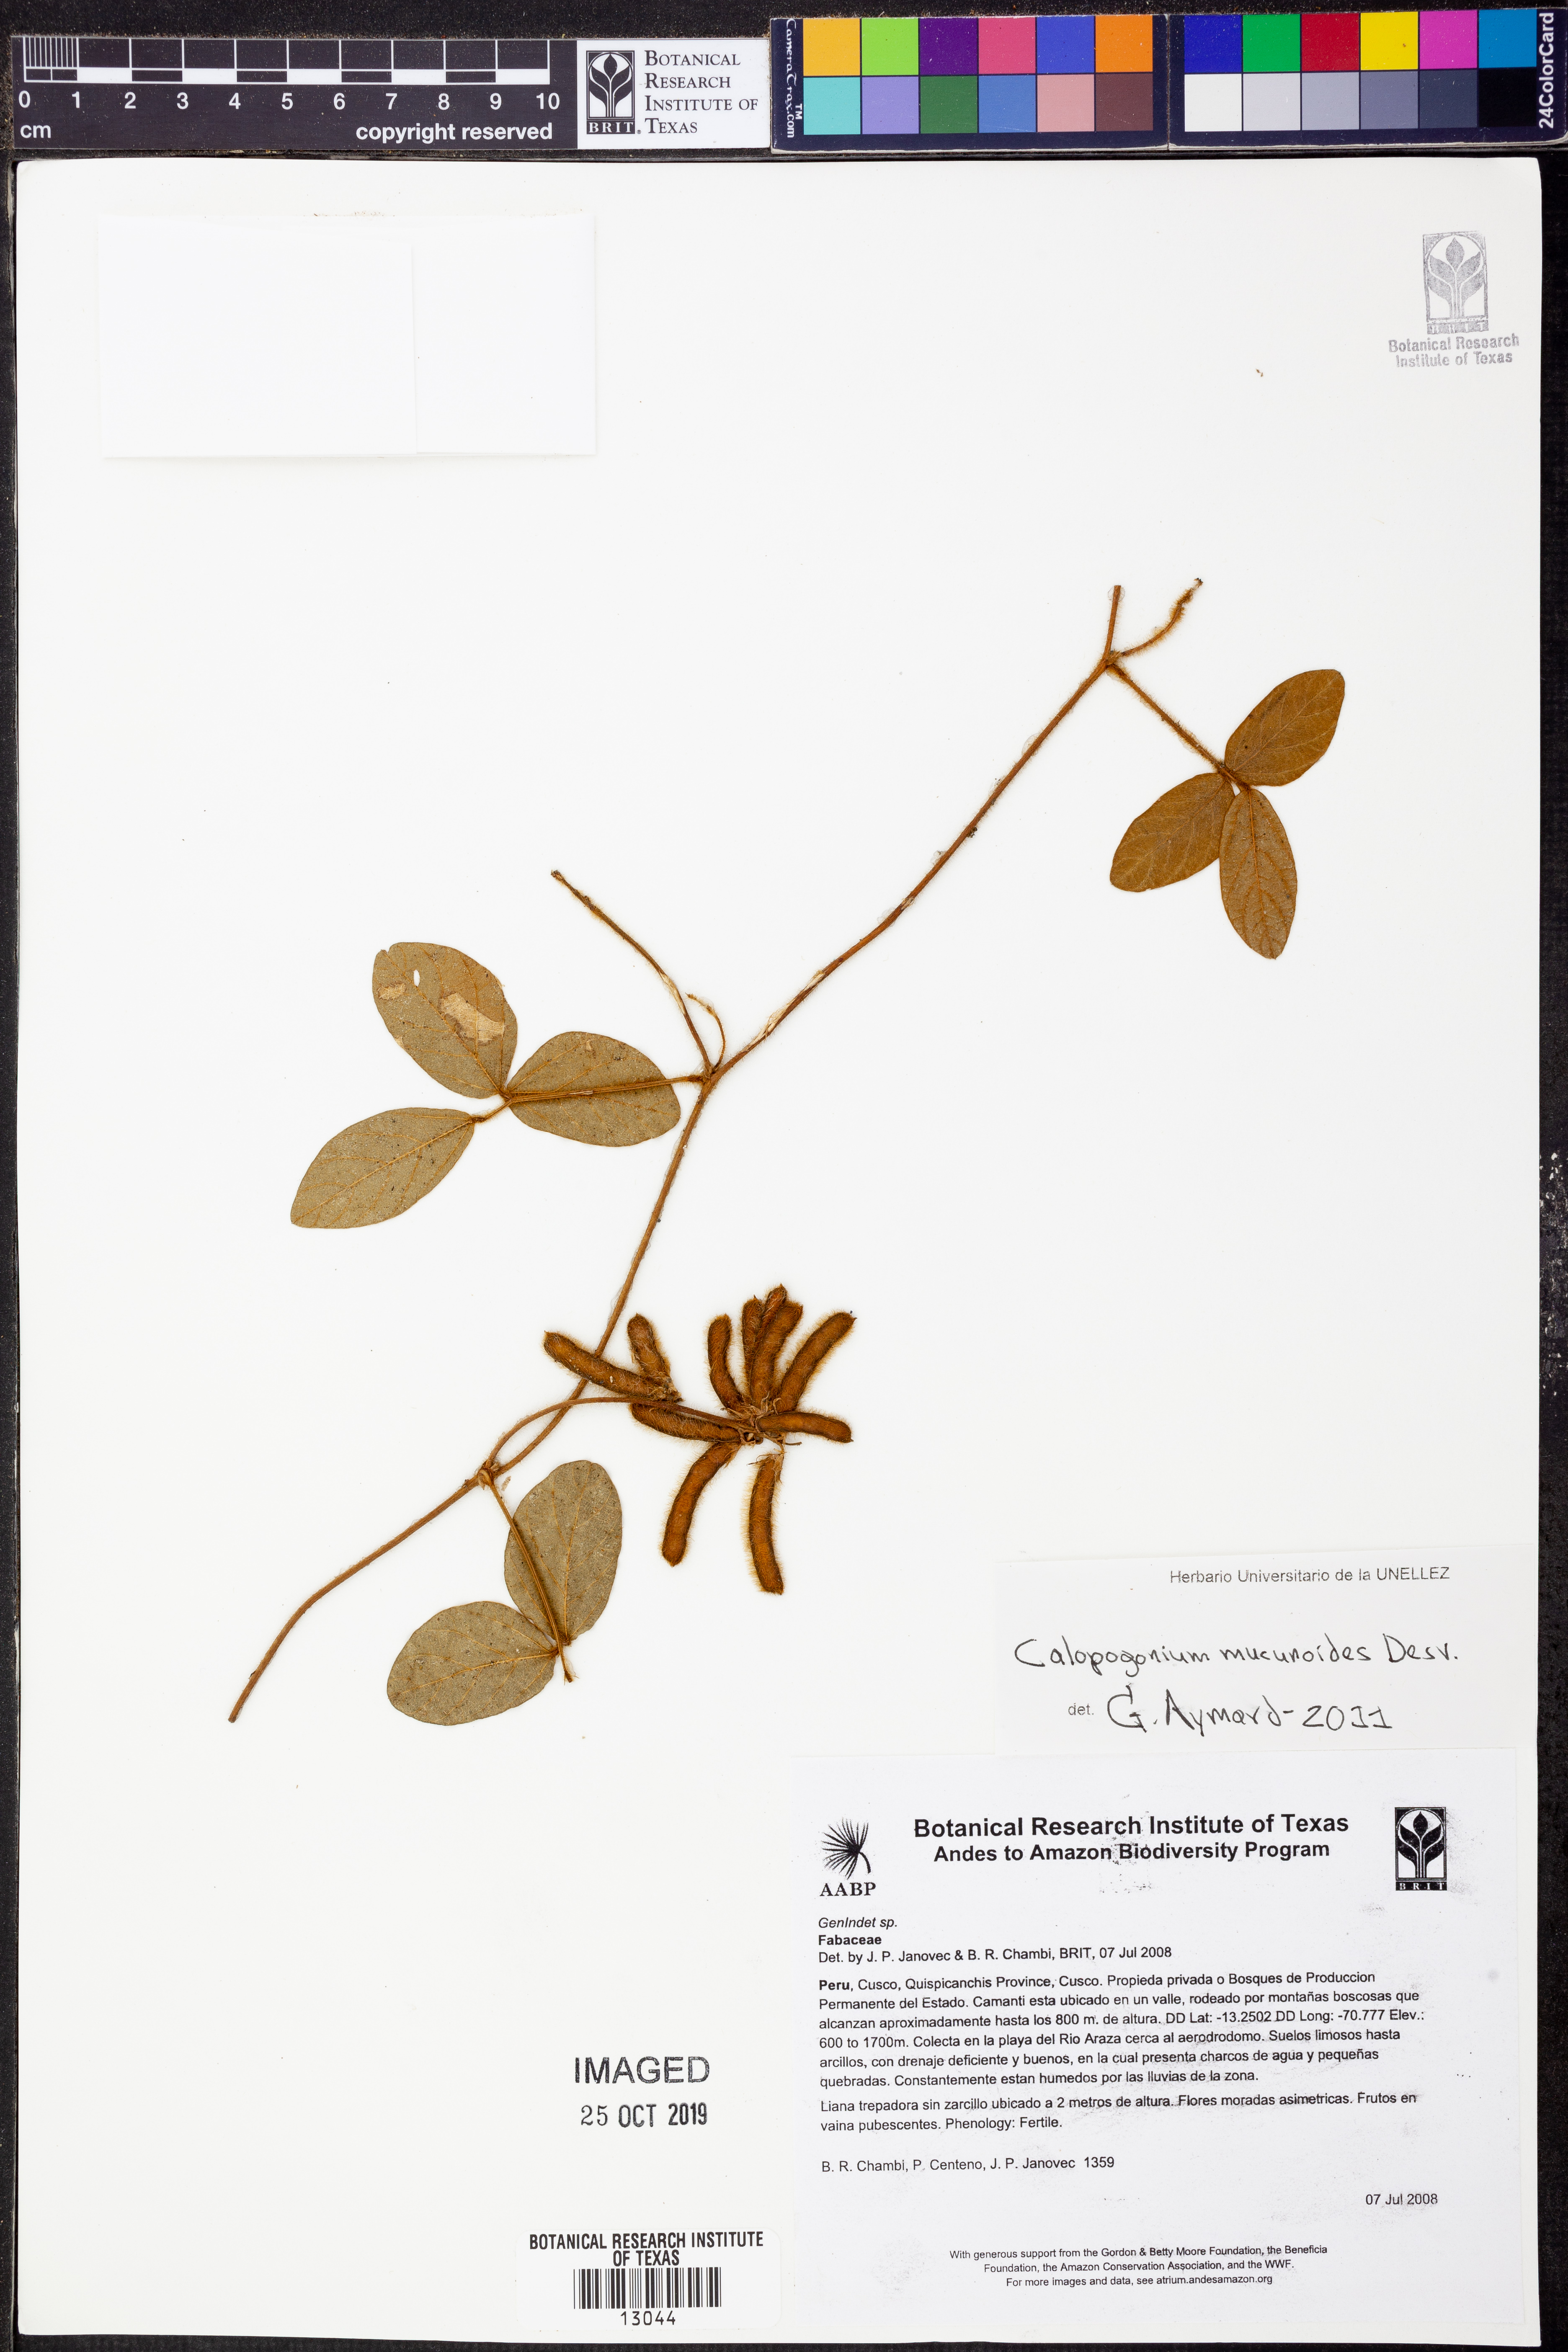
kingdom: Plantae
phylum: Tracheophyta
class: Magnoliopsida
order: Fabales
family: Fabaceae
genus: Calopogonium
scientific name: Calopogonium
